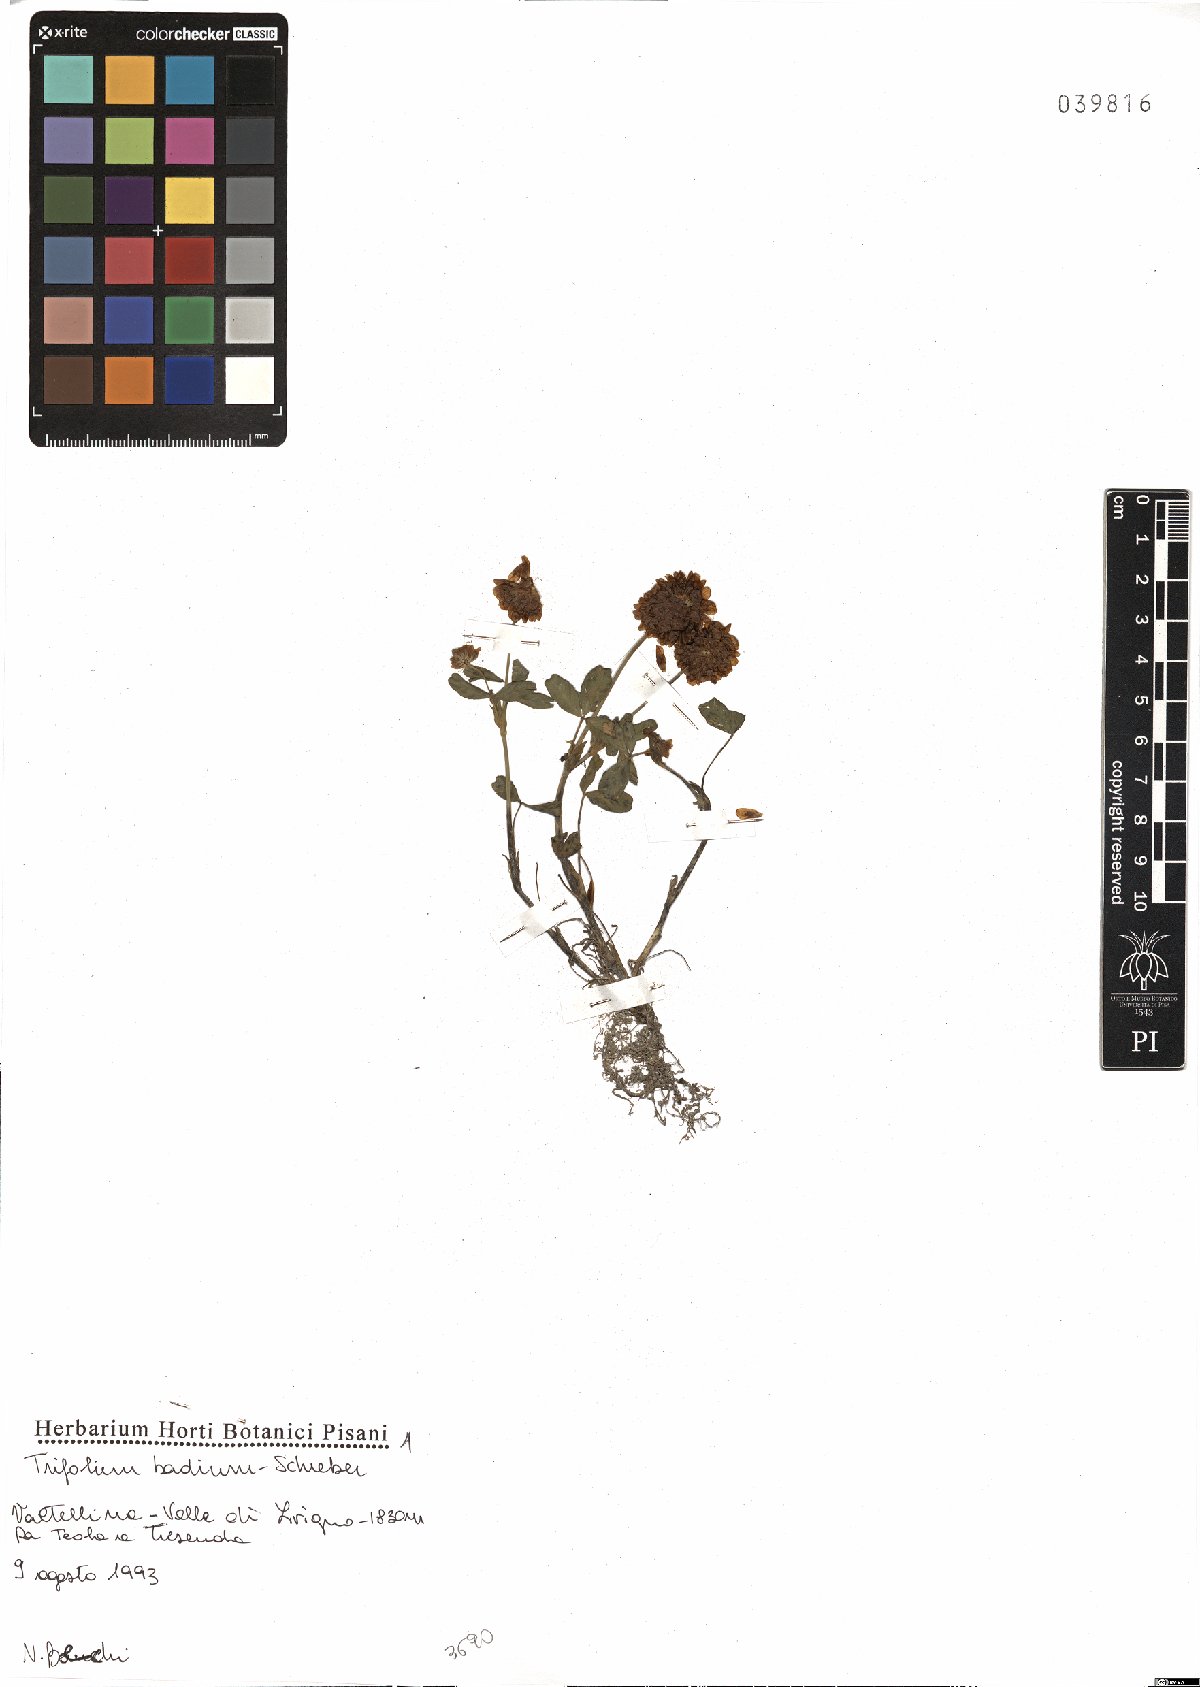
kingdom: Plantae
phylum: Tracheophyta
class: Magnoliopsida
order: Fabales
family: Fabaceae
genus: Trifolium
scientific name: Trifolium badium
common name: Brown clover
